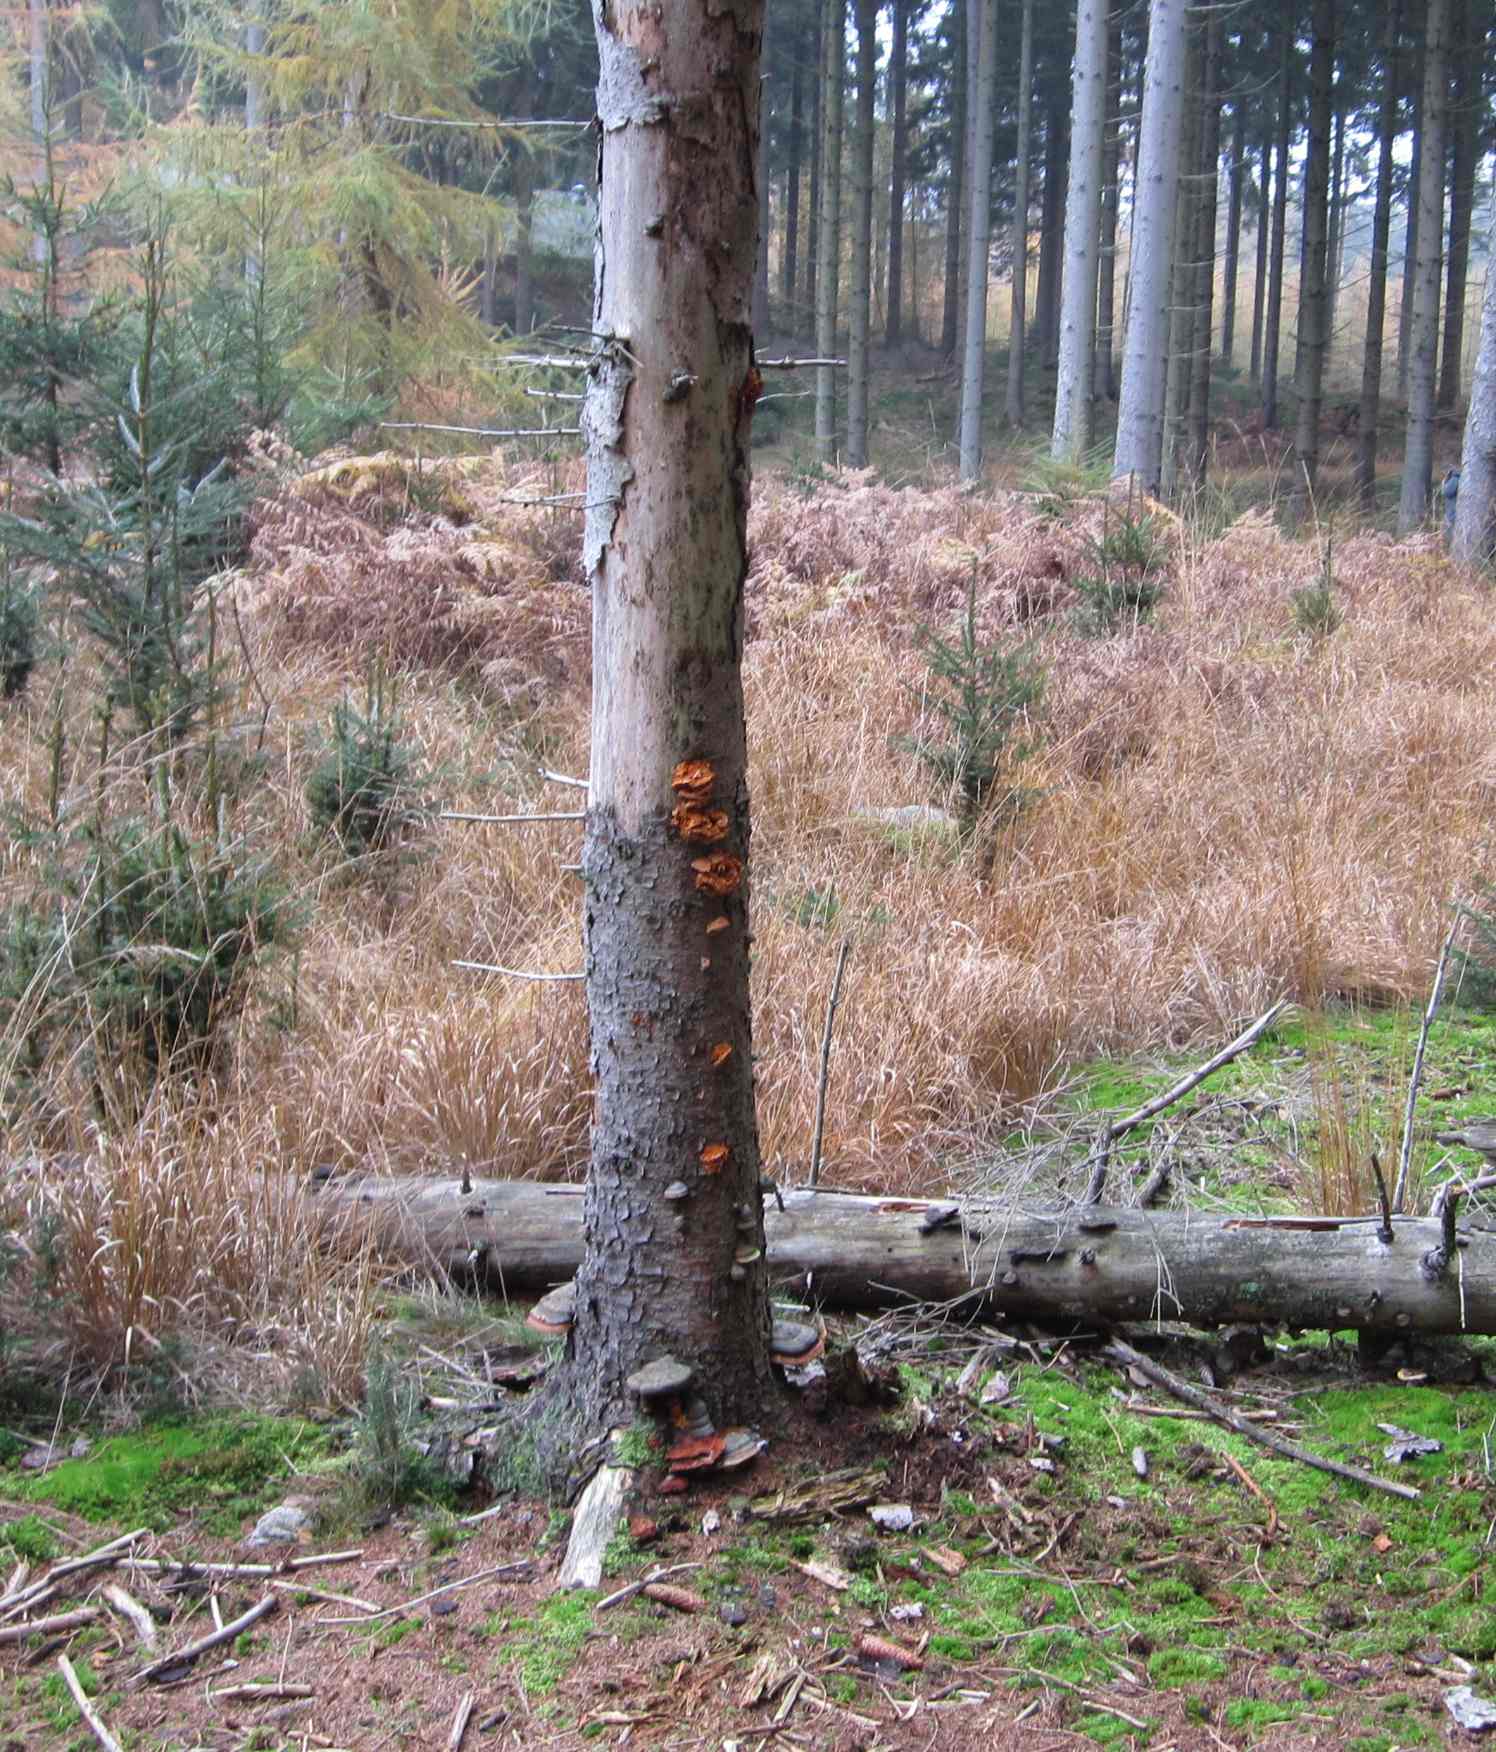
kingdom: Fungi
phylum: Basidiomycota
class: Agaricomycetes
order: Polyporales
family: Pycnoporellaceae
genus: Pycnoporellus
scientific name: Pycnoporellus fulgens
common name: flammeporesvamp
